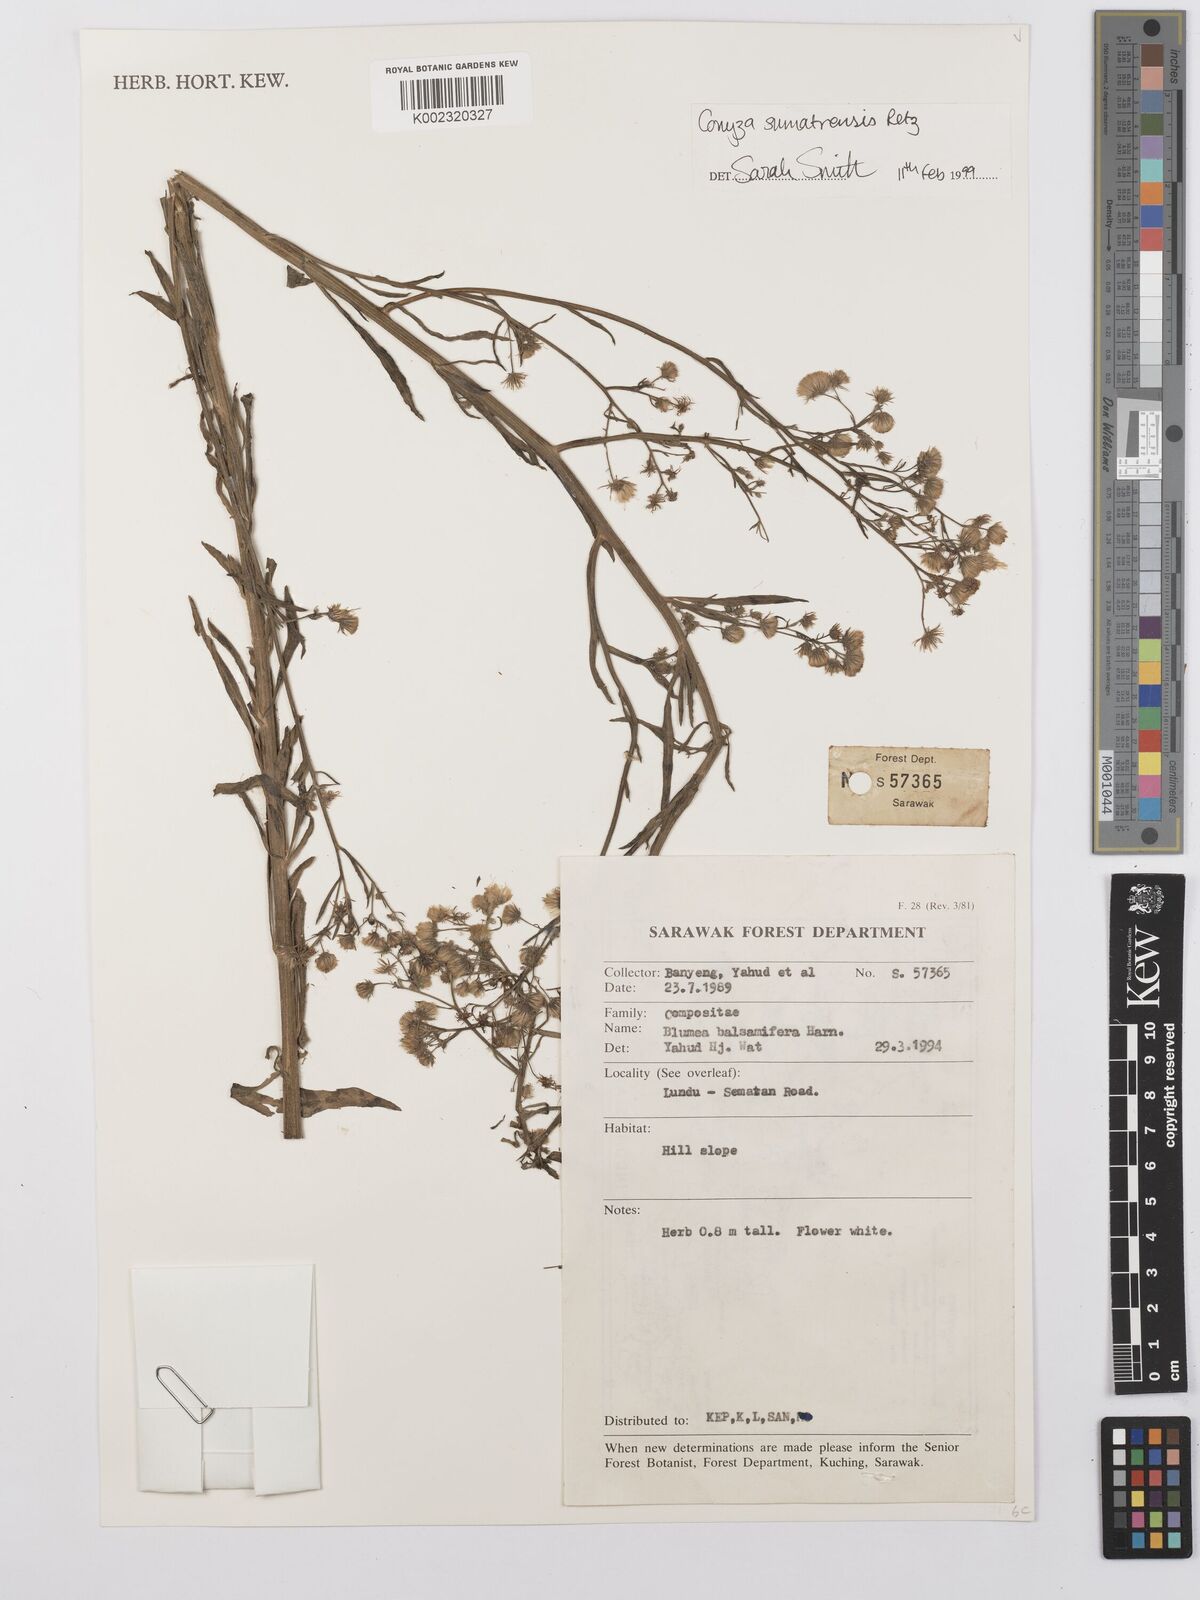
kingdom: Plantae
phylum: Tracheophyta
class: Magnoliopsida
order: Asterales
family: Asteraceae
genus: Erigeron
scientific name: Erigeron sumatrensis
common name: Daisy
